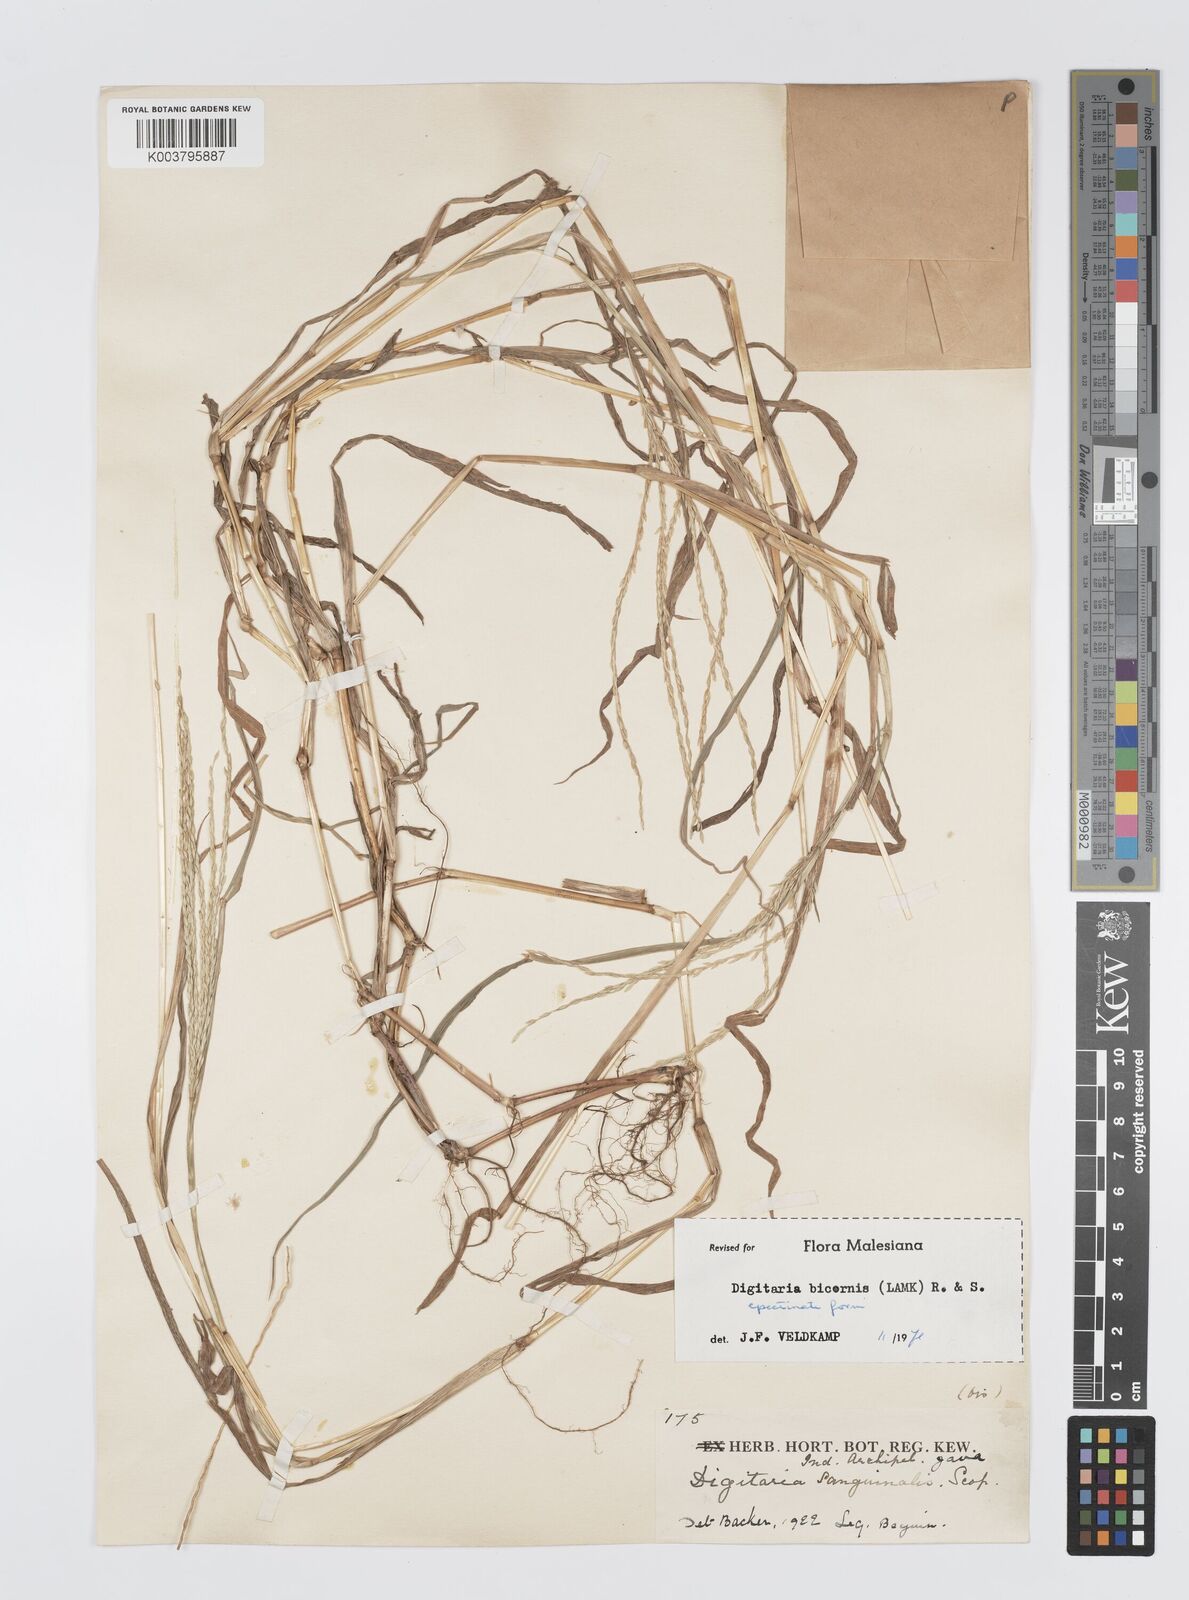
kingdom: Plantae
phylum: Tracheophyta
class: Liliopsida
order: Poales
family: Poaceae
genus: Digitaria
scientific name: Digitaria ciliaris
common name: Tropical finger-grass
